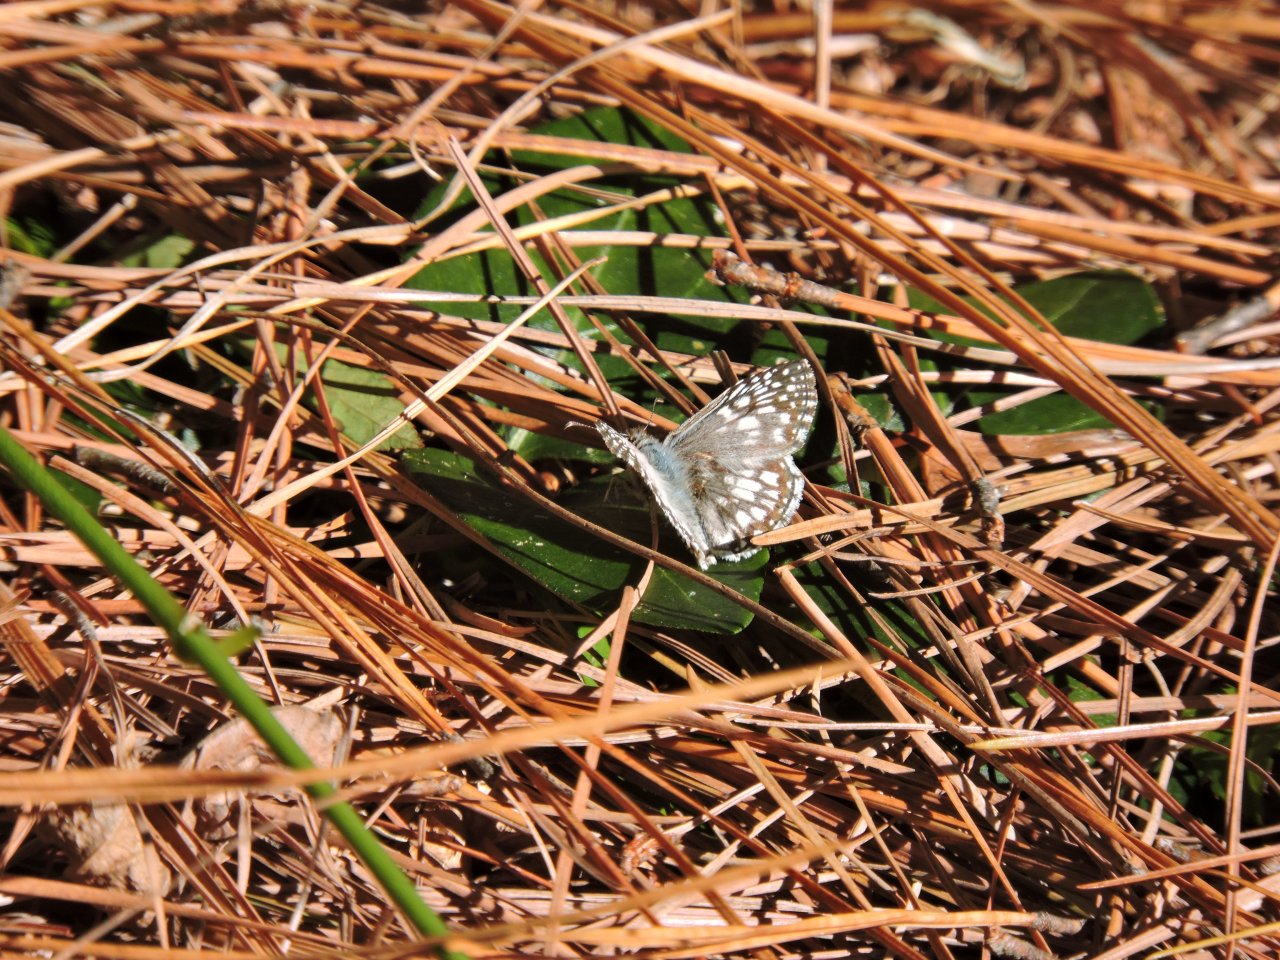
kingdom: Animalia
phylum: Arthropoda
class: Insecta
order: Lepidoptera
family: Hesperiidae
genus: Pyrgus
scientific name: Pyrgus oileus
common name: Tropical Checkered-Skipper
